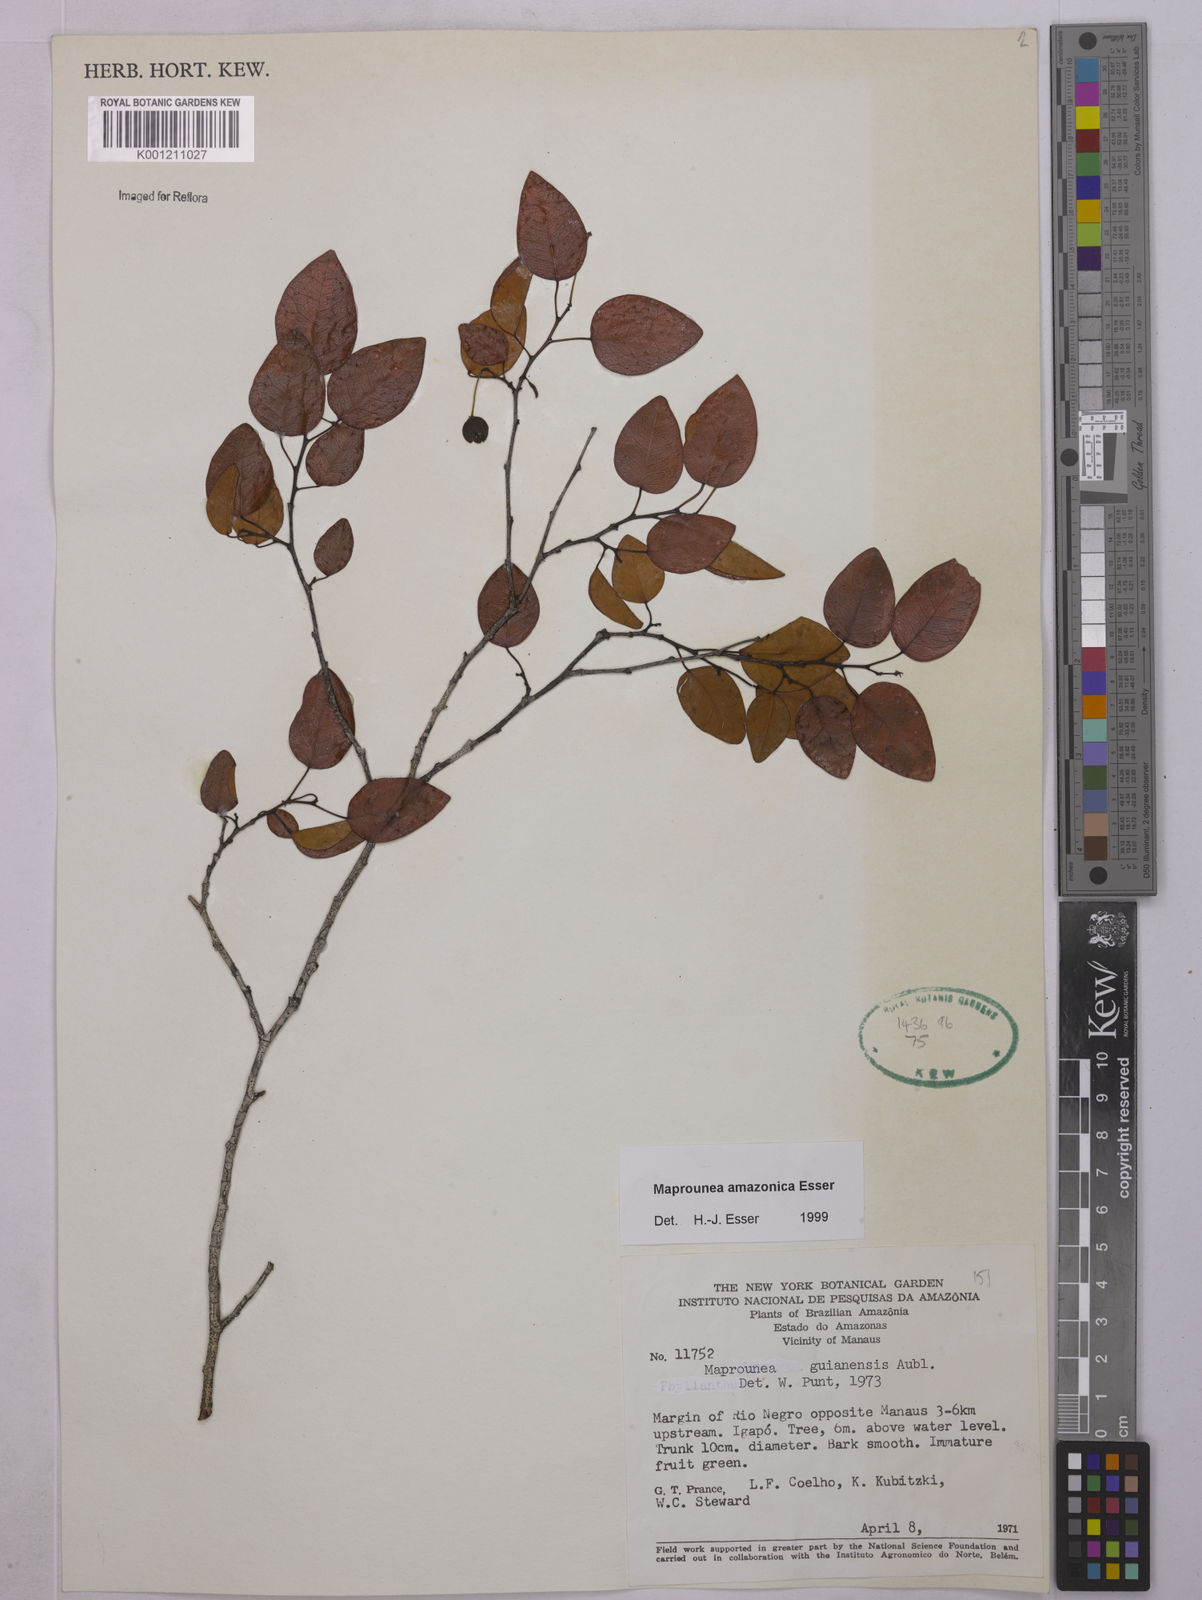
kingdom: Plantae
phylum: Tracheophyta
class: Magnoliopsida
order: Malpighiales
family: Euphorbiaceae
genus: Maprounea
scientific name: Maprounea amazonica
